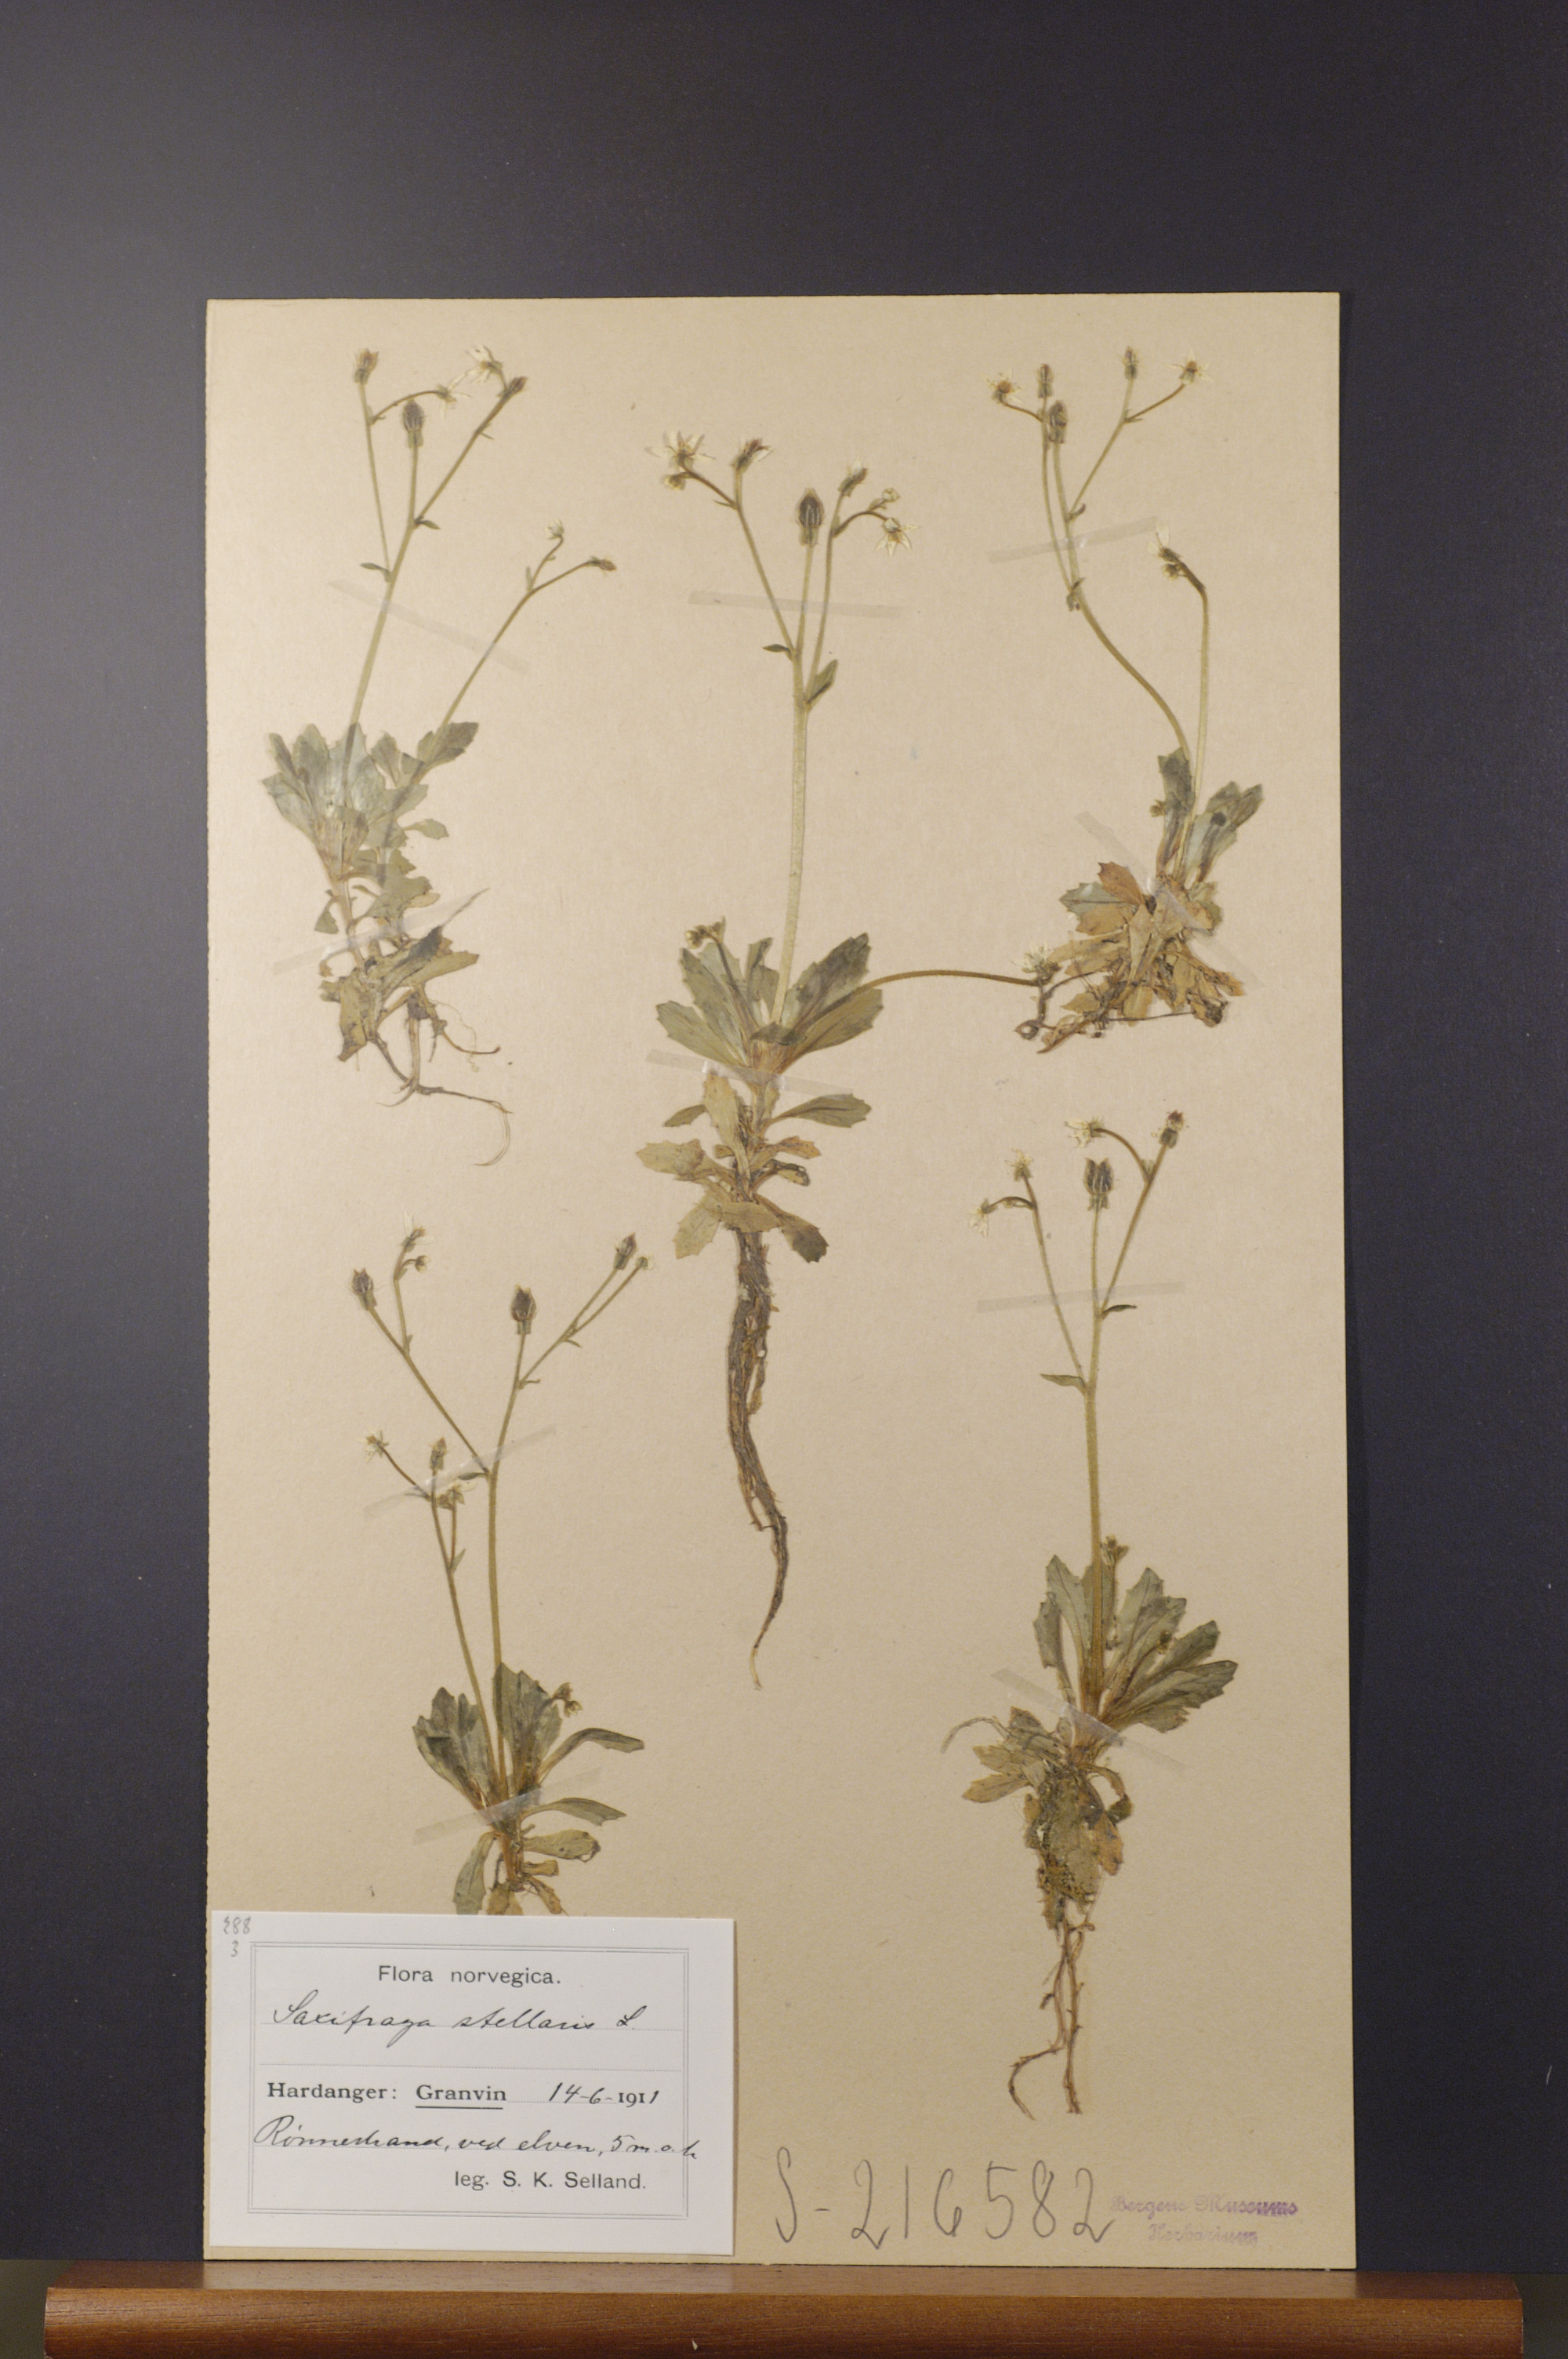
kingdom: Plantae
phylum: Tracheophyta
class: Magnoliopsida
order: Saxifragales
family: Saxifragaceae
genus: Micranthes
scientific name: Micranthes stellaris
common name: Starry saxifrage
